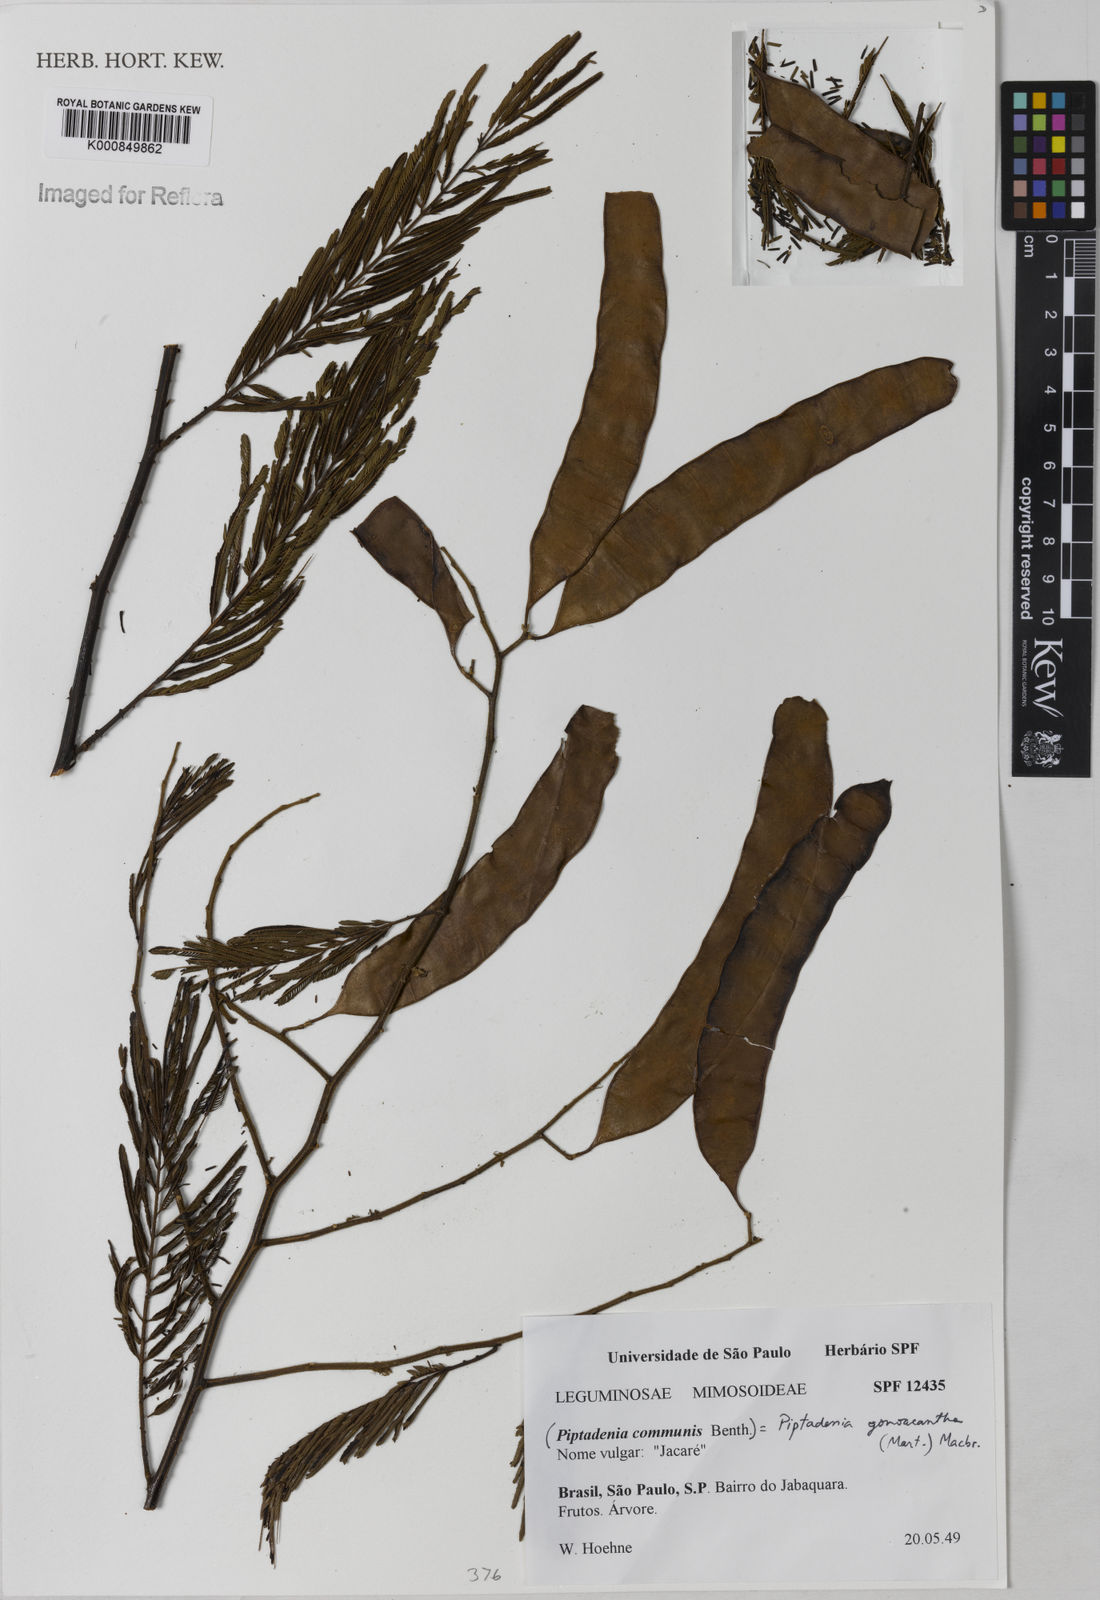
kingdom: Plantae
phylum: Tracheophyta
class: Magnoliopsida
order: Fabales
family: Fabaceae
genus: Piptadenia
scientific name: Piptadenia gonoacantha
